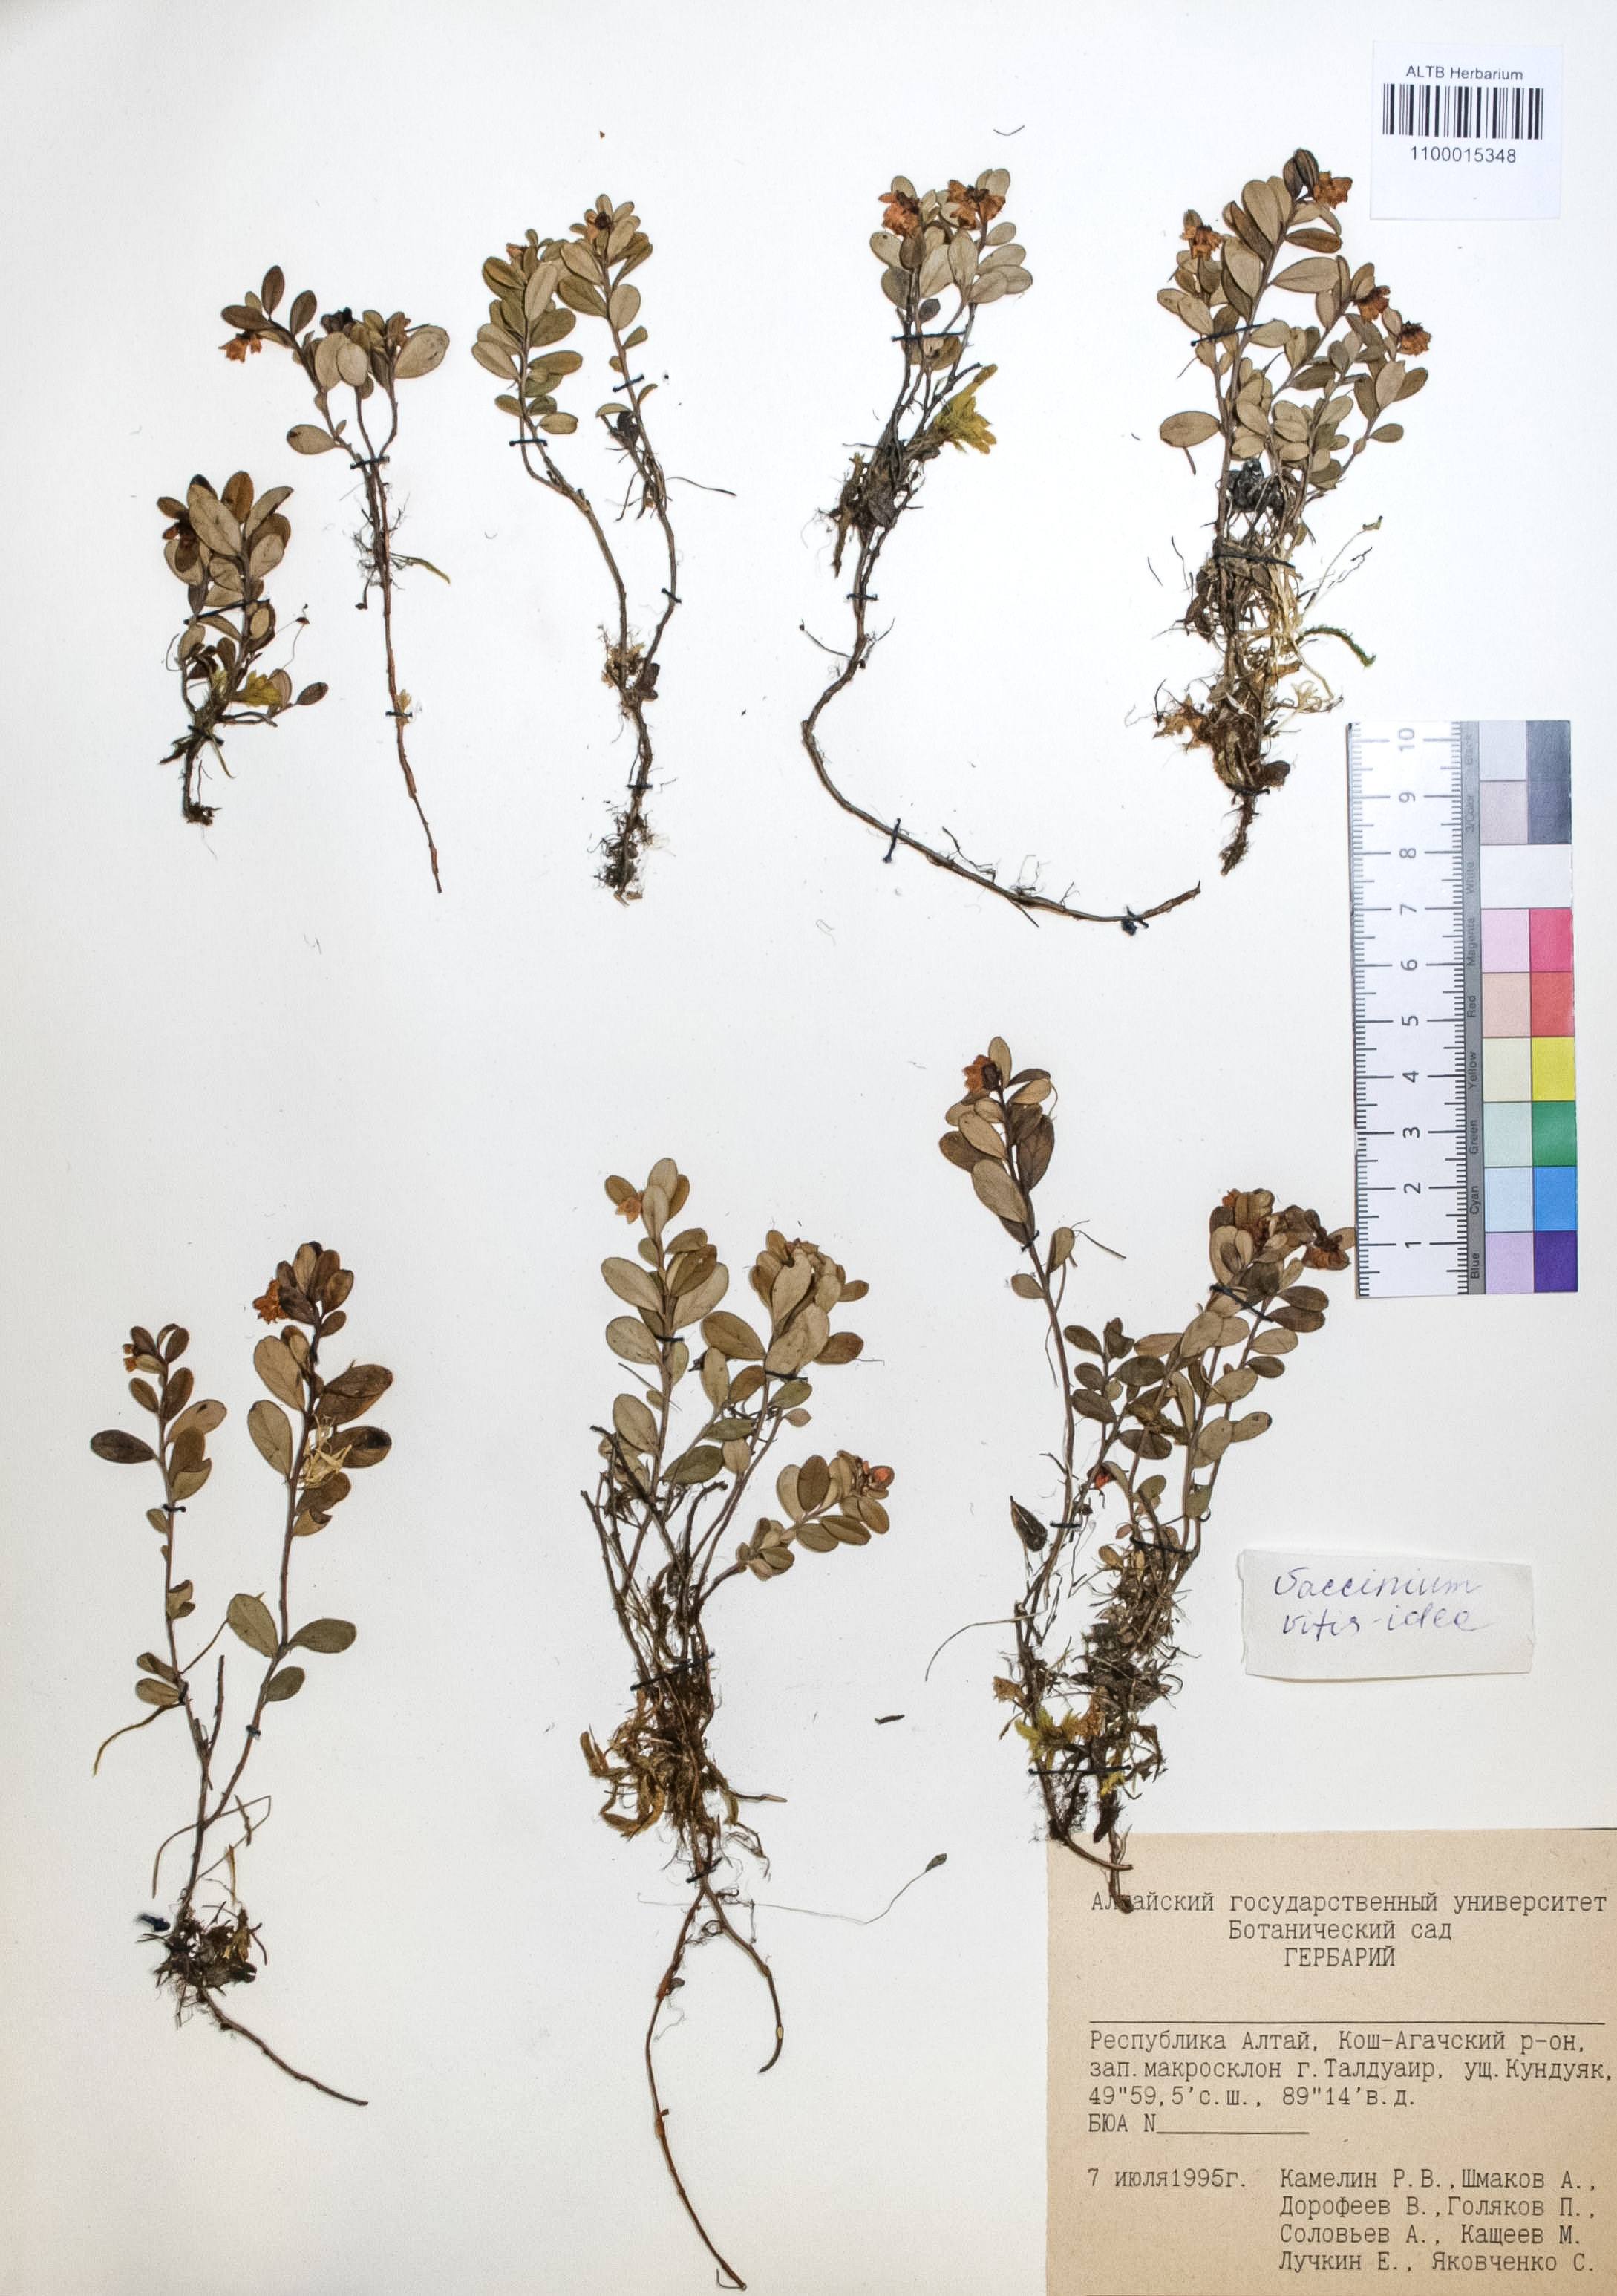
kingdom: Plantae
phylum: Tracheophyta
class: Magnoliopsida
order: Ericales
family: Ericaceae
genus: Vaccinium
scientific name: Vaccinium vitis-idaea
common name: Cowberry
